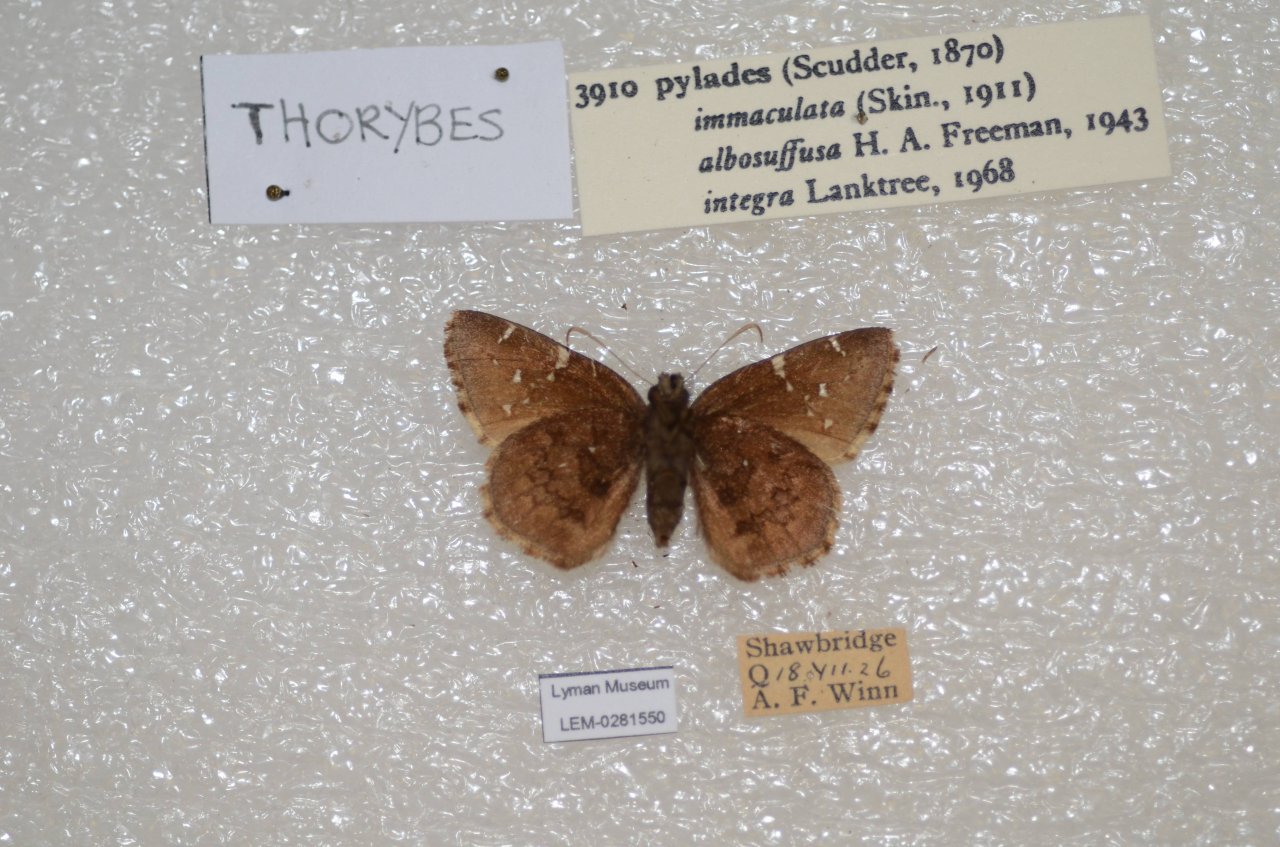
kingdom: Animalia
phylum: Arthropoda
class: Insecta
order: Lepidoptera
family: Hesperiidae
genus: Autochton
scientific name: Autochton
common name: Northern Cloudywing
